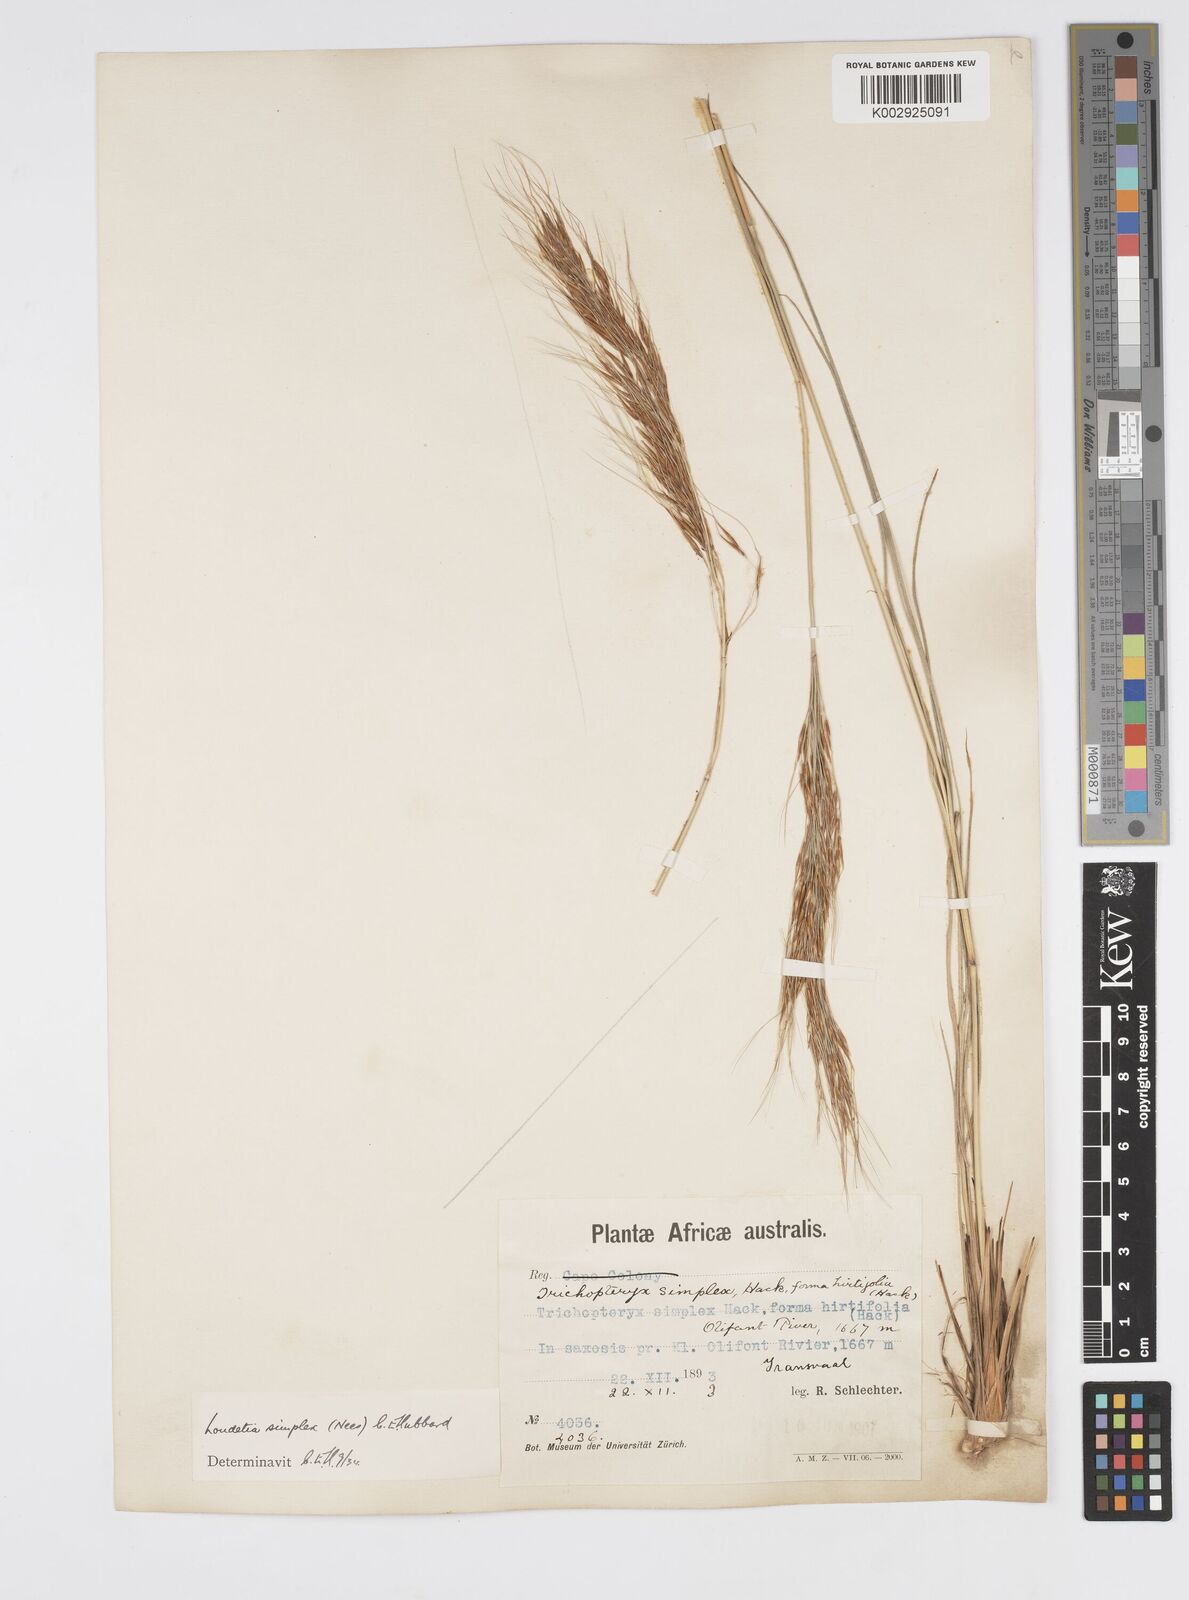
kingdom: Plantae
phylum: Tracheophyta
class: Liliopsida
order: Poales
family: Poaceae
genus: Loudetia
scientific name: Loudetia simplex
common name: Common russet grass
